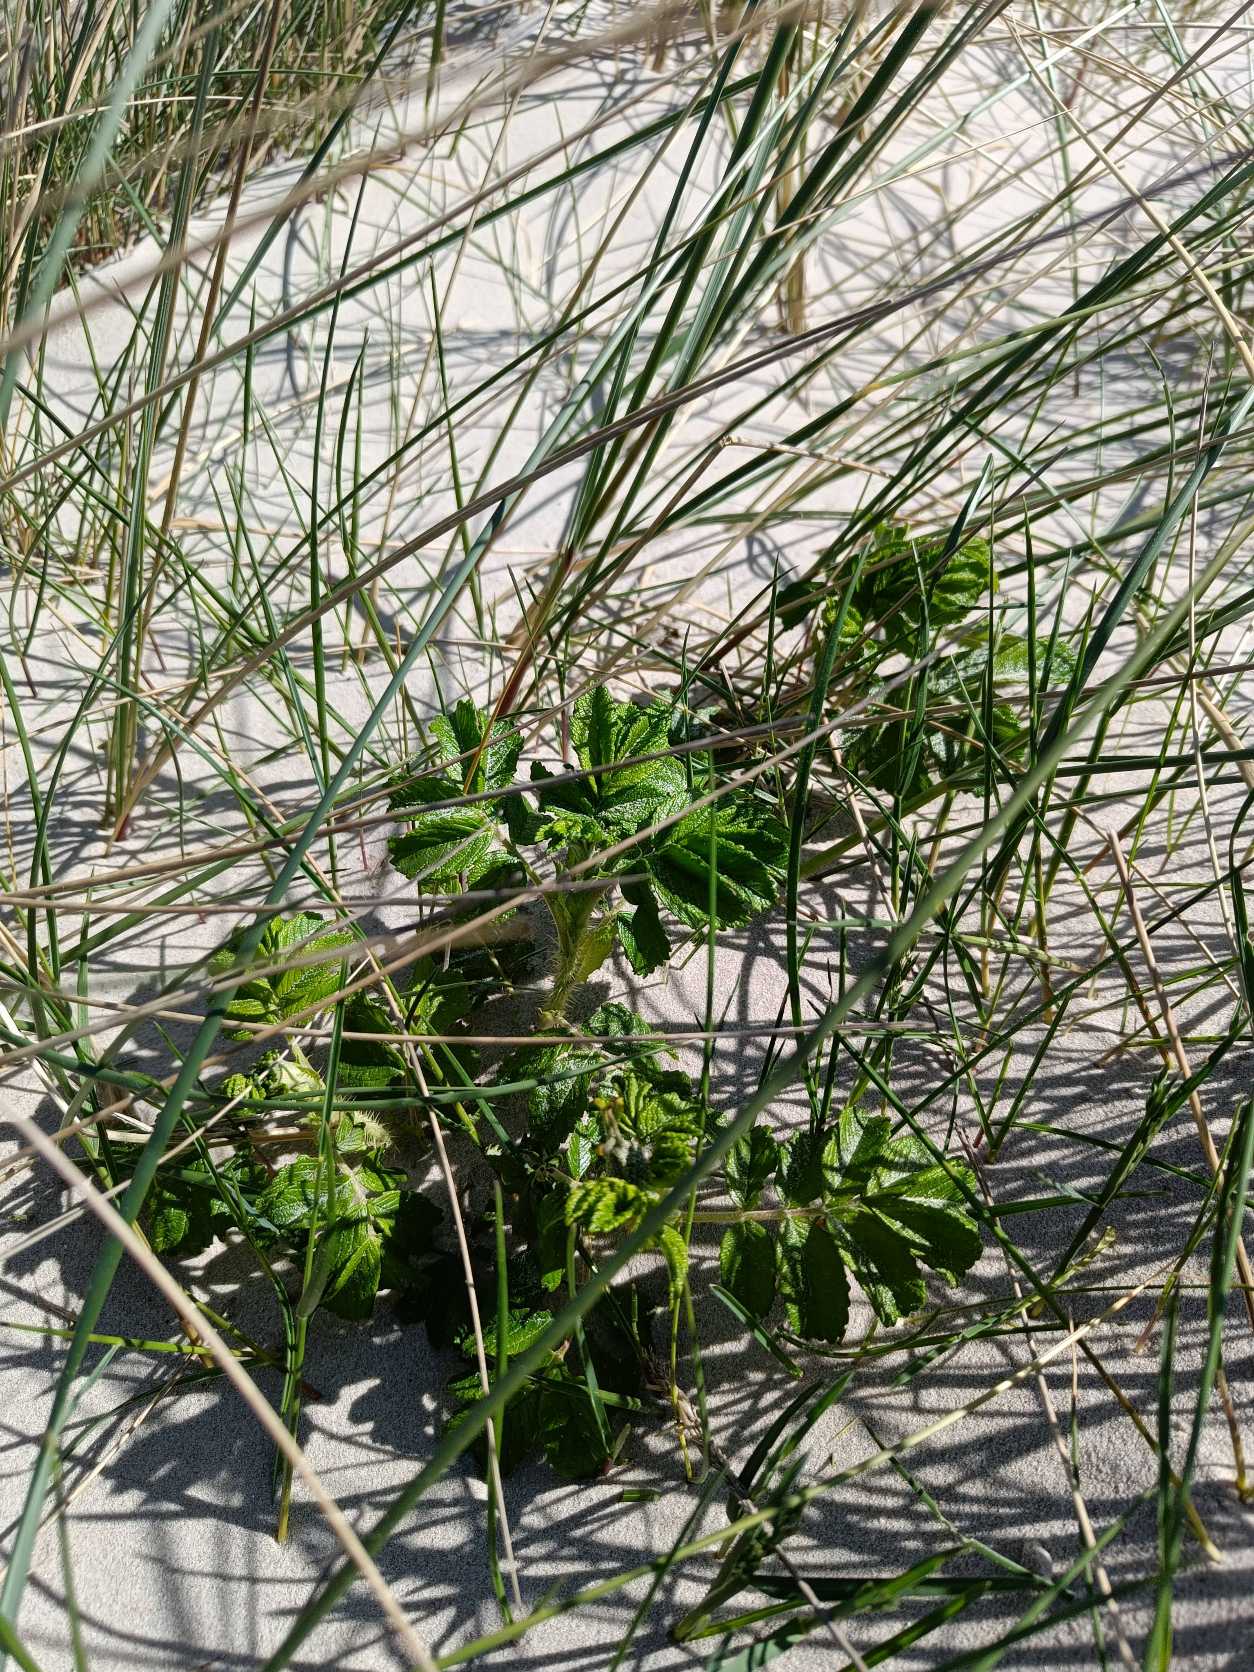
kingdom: Plantae
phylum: Tracheophyta
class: Magnoliopsida
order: Rosales
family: Rosaceae
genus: Rosa
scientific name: Rosa rugosa
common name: Rynket rose
